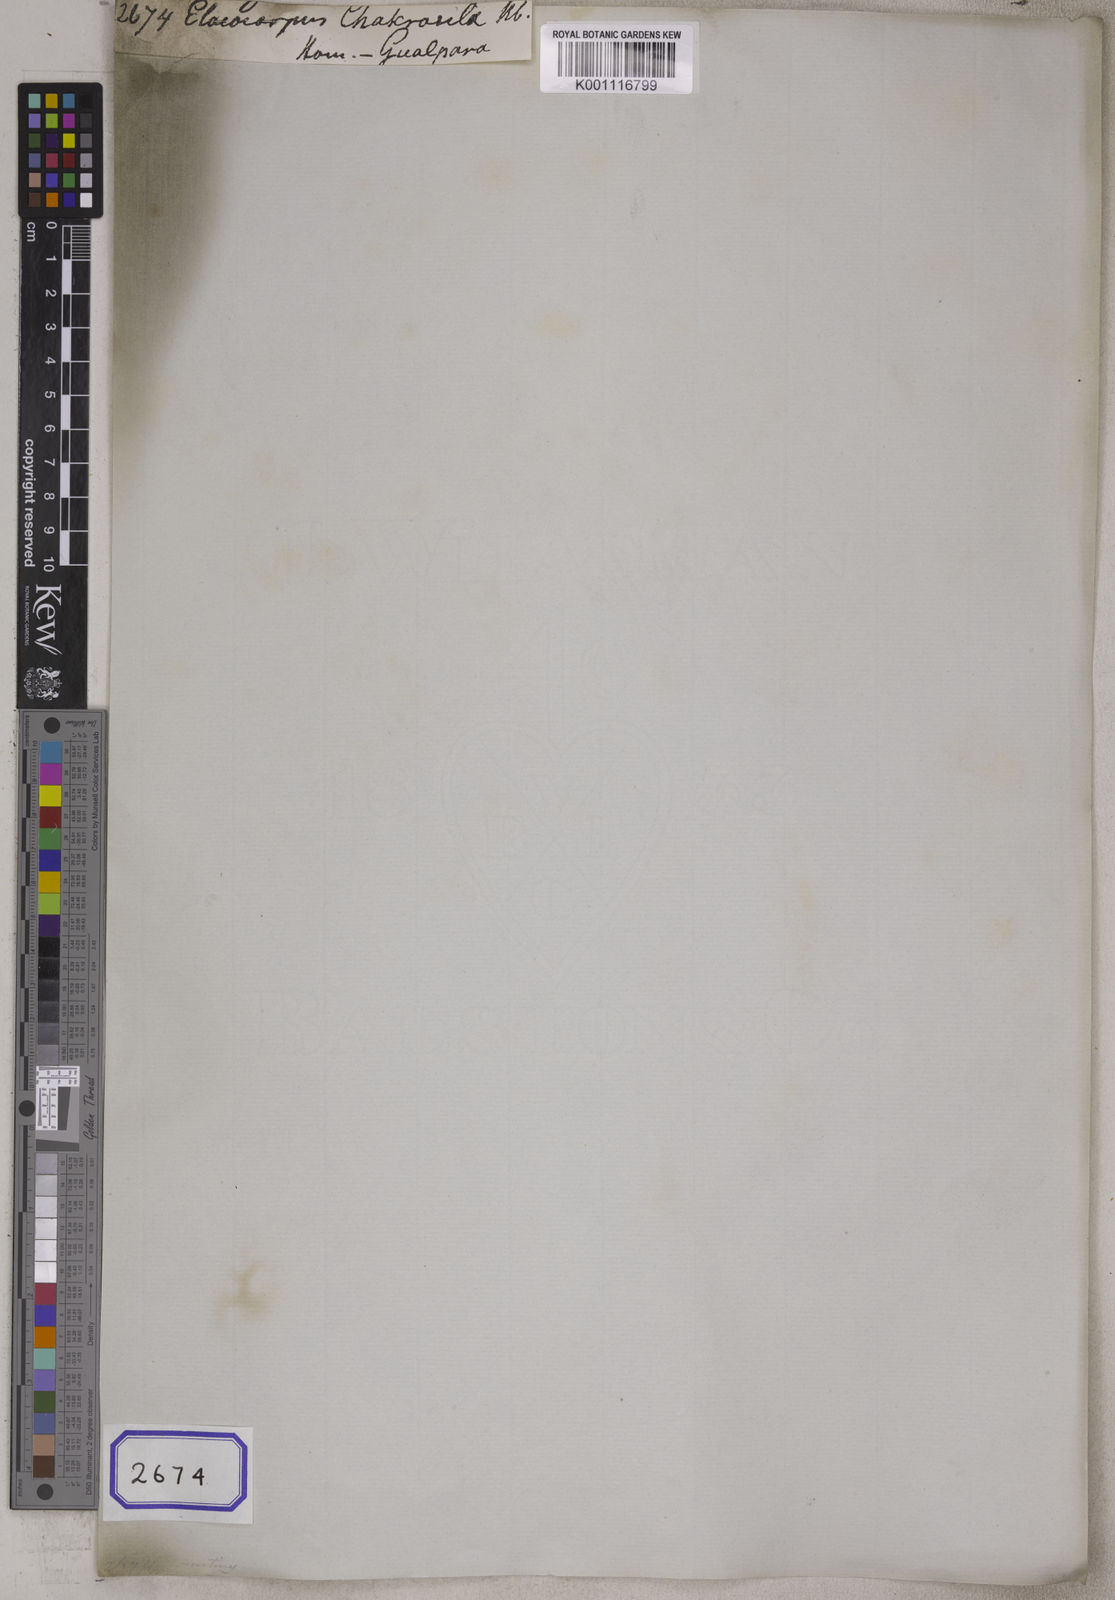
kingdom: Plantae
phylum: Tracheophyta
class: Magnoliopsida
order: Oxalidales
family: Elaeocarpaceae
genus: Elaeocarpus
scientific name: Elaeocarpus
